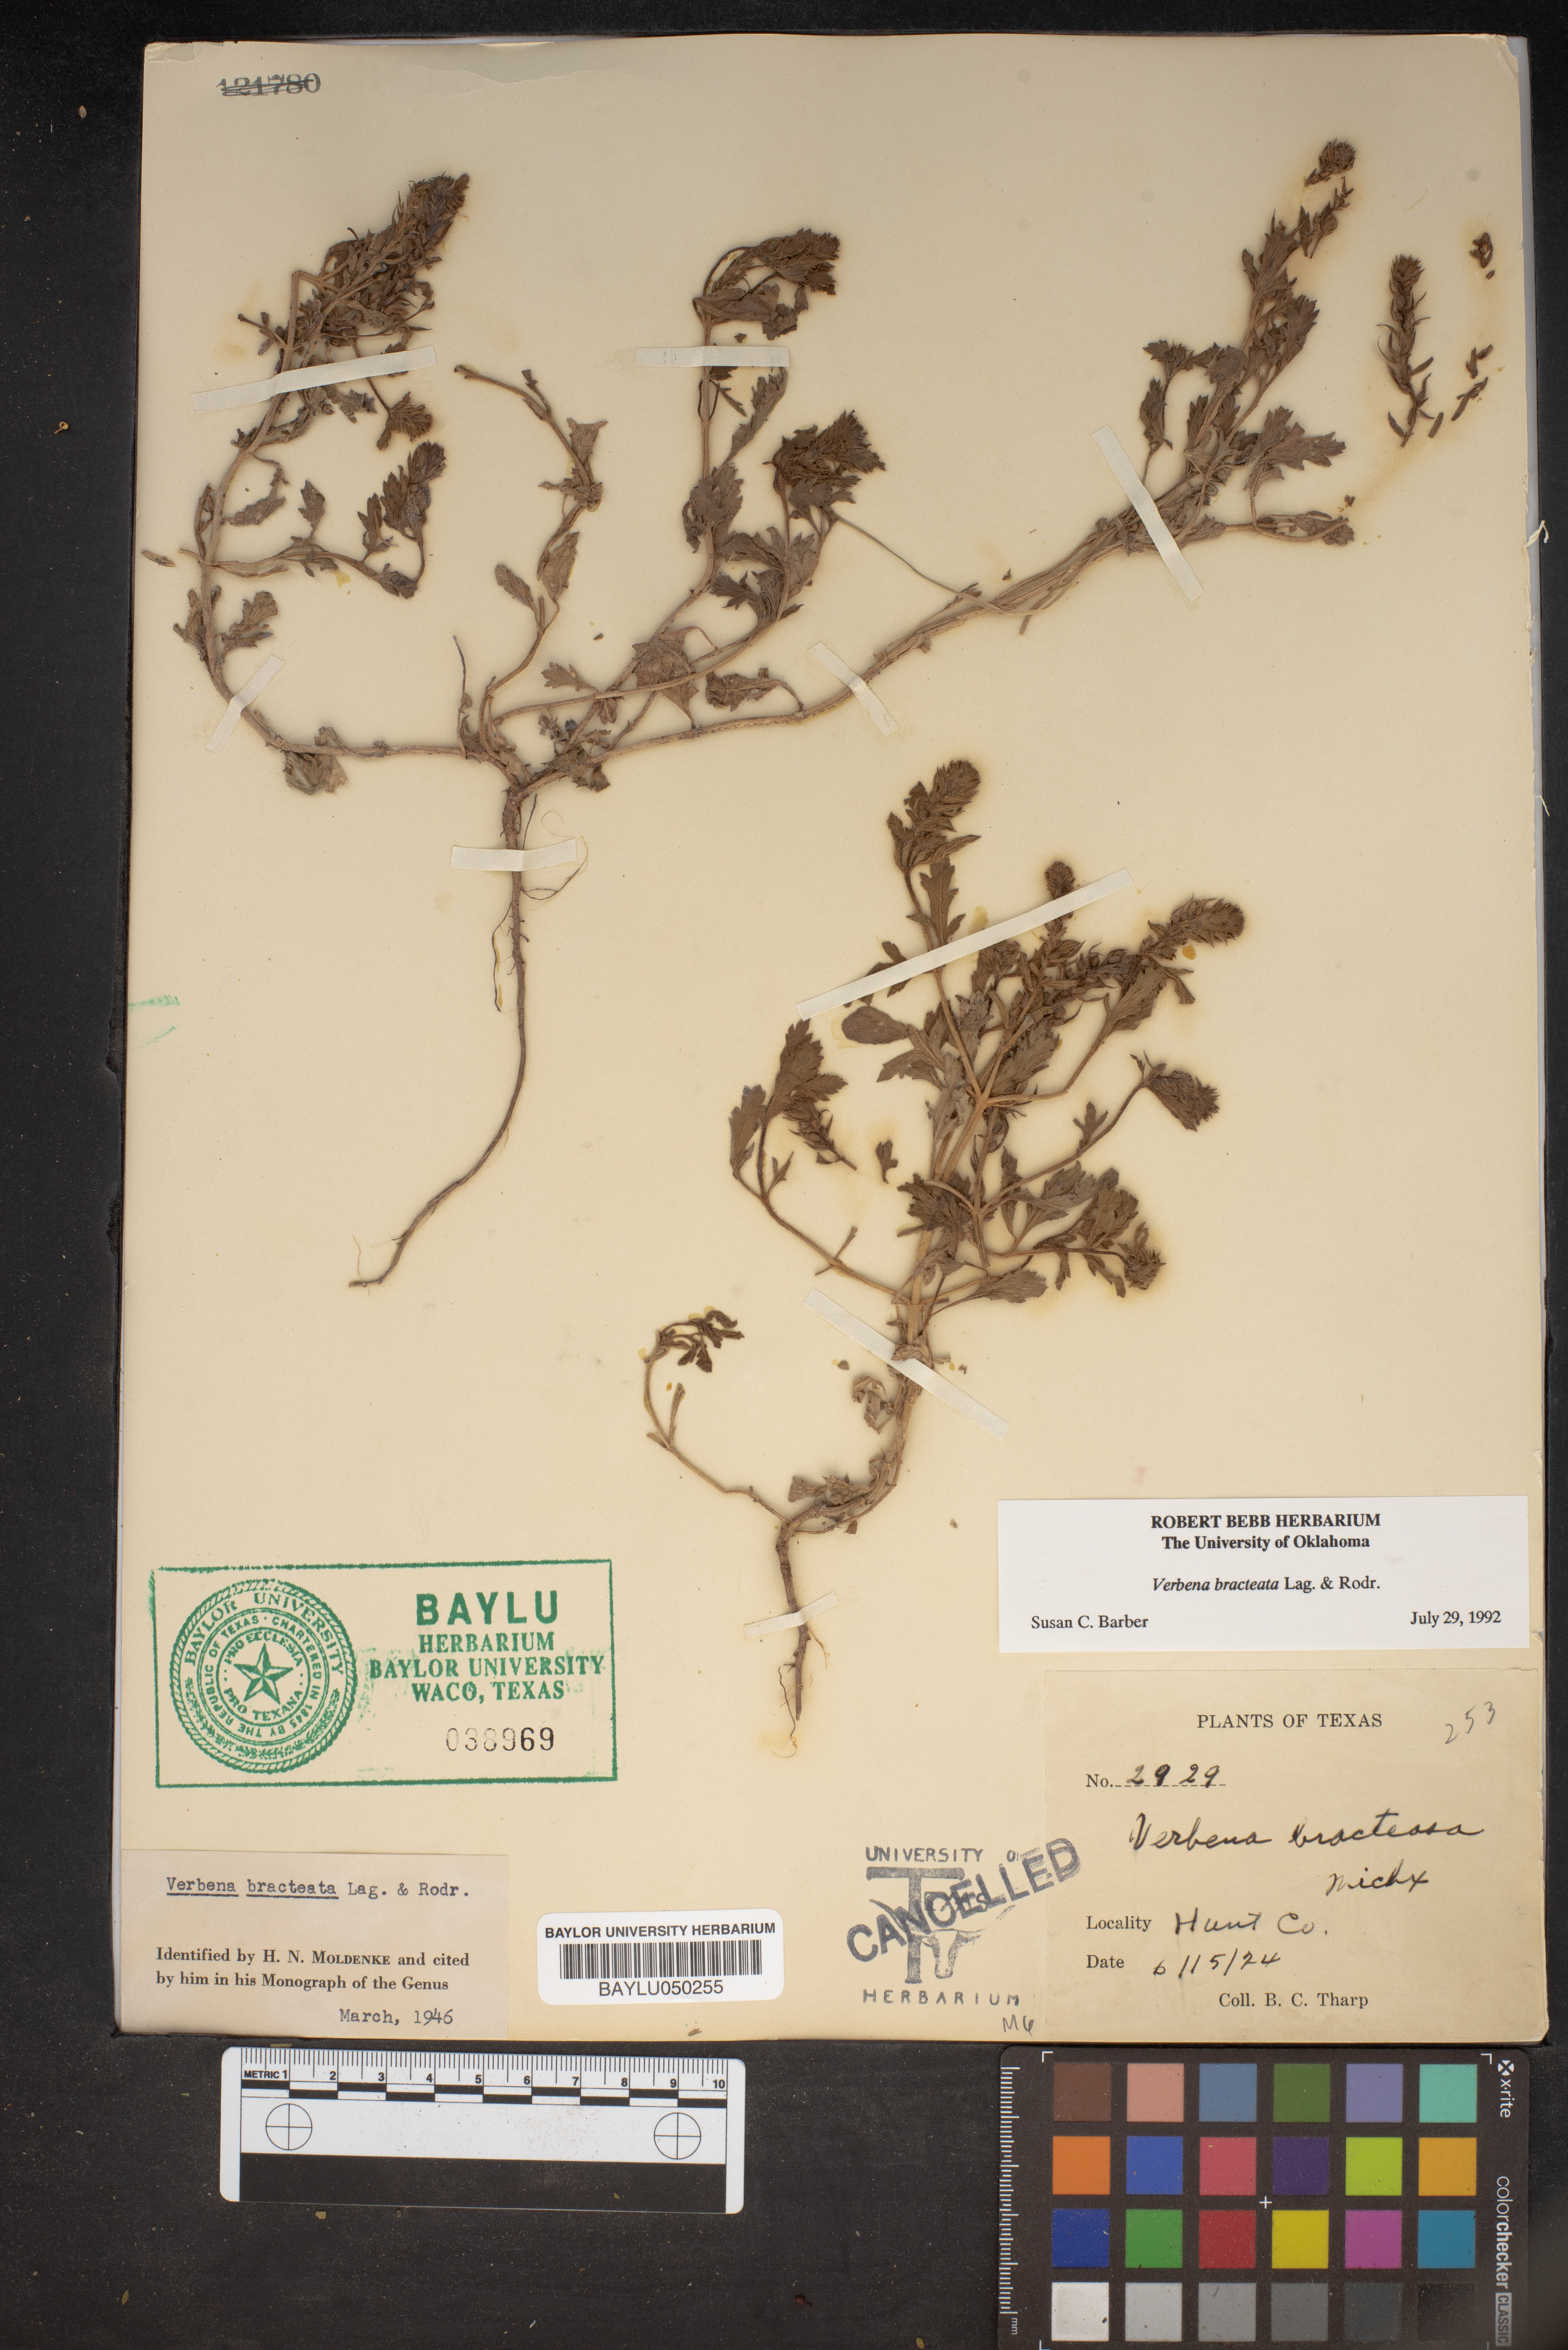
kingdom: Plantae
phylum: Tracheophyta
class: Magnoliopsida
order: Lamiales
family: Verbenaceae
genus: Verbena
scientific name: Verbena bracteata
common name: Bracted vervain
